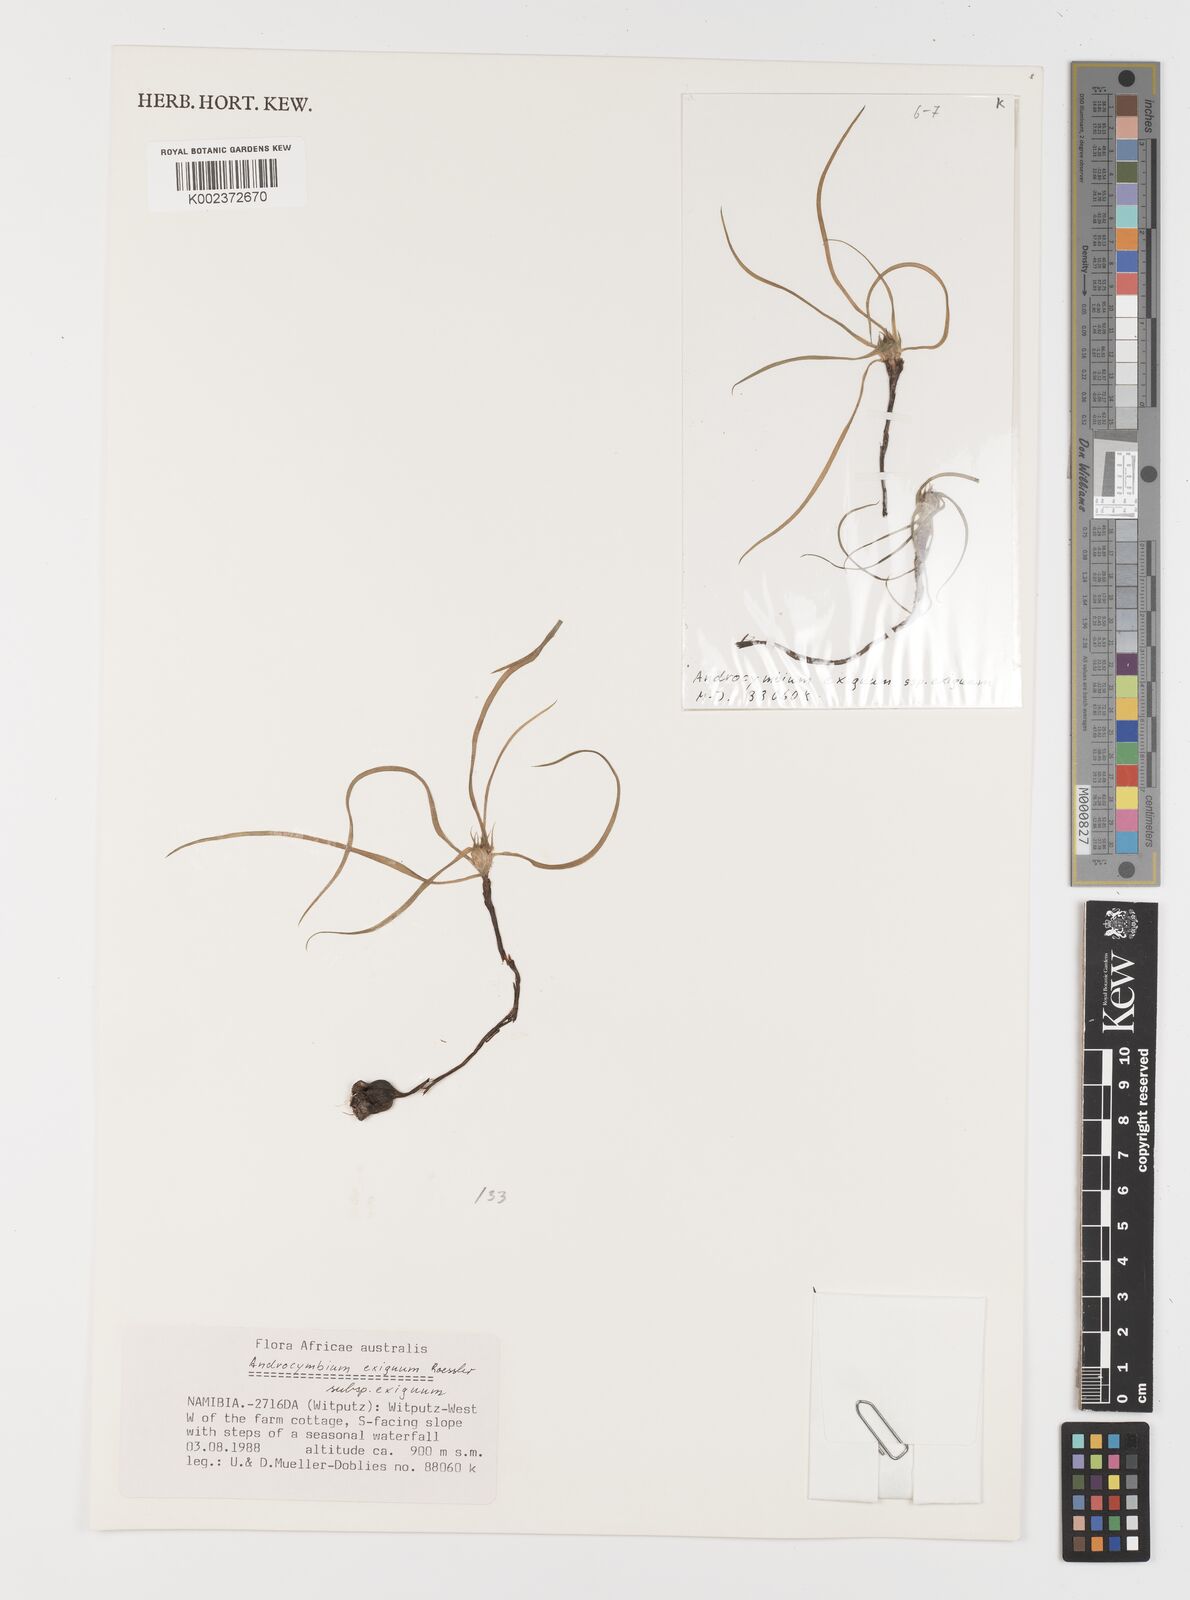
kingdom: Plantae
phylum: Tracheophyta
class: Liliopsida
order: Liliales
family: Colchicaceae
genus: Colchicum
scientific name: Colchicum exiguum
